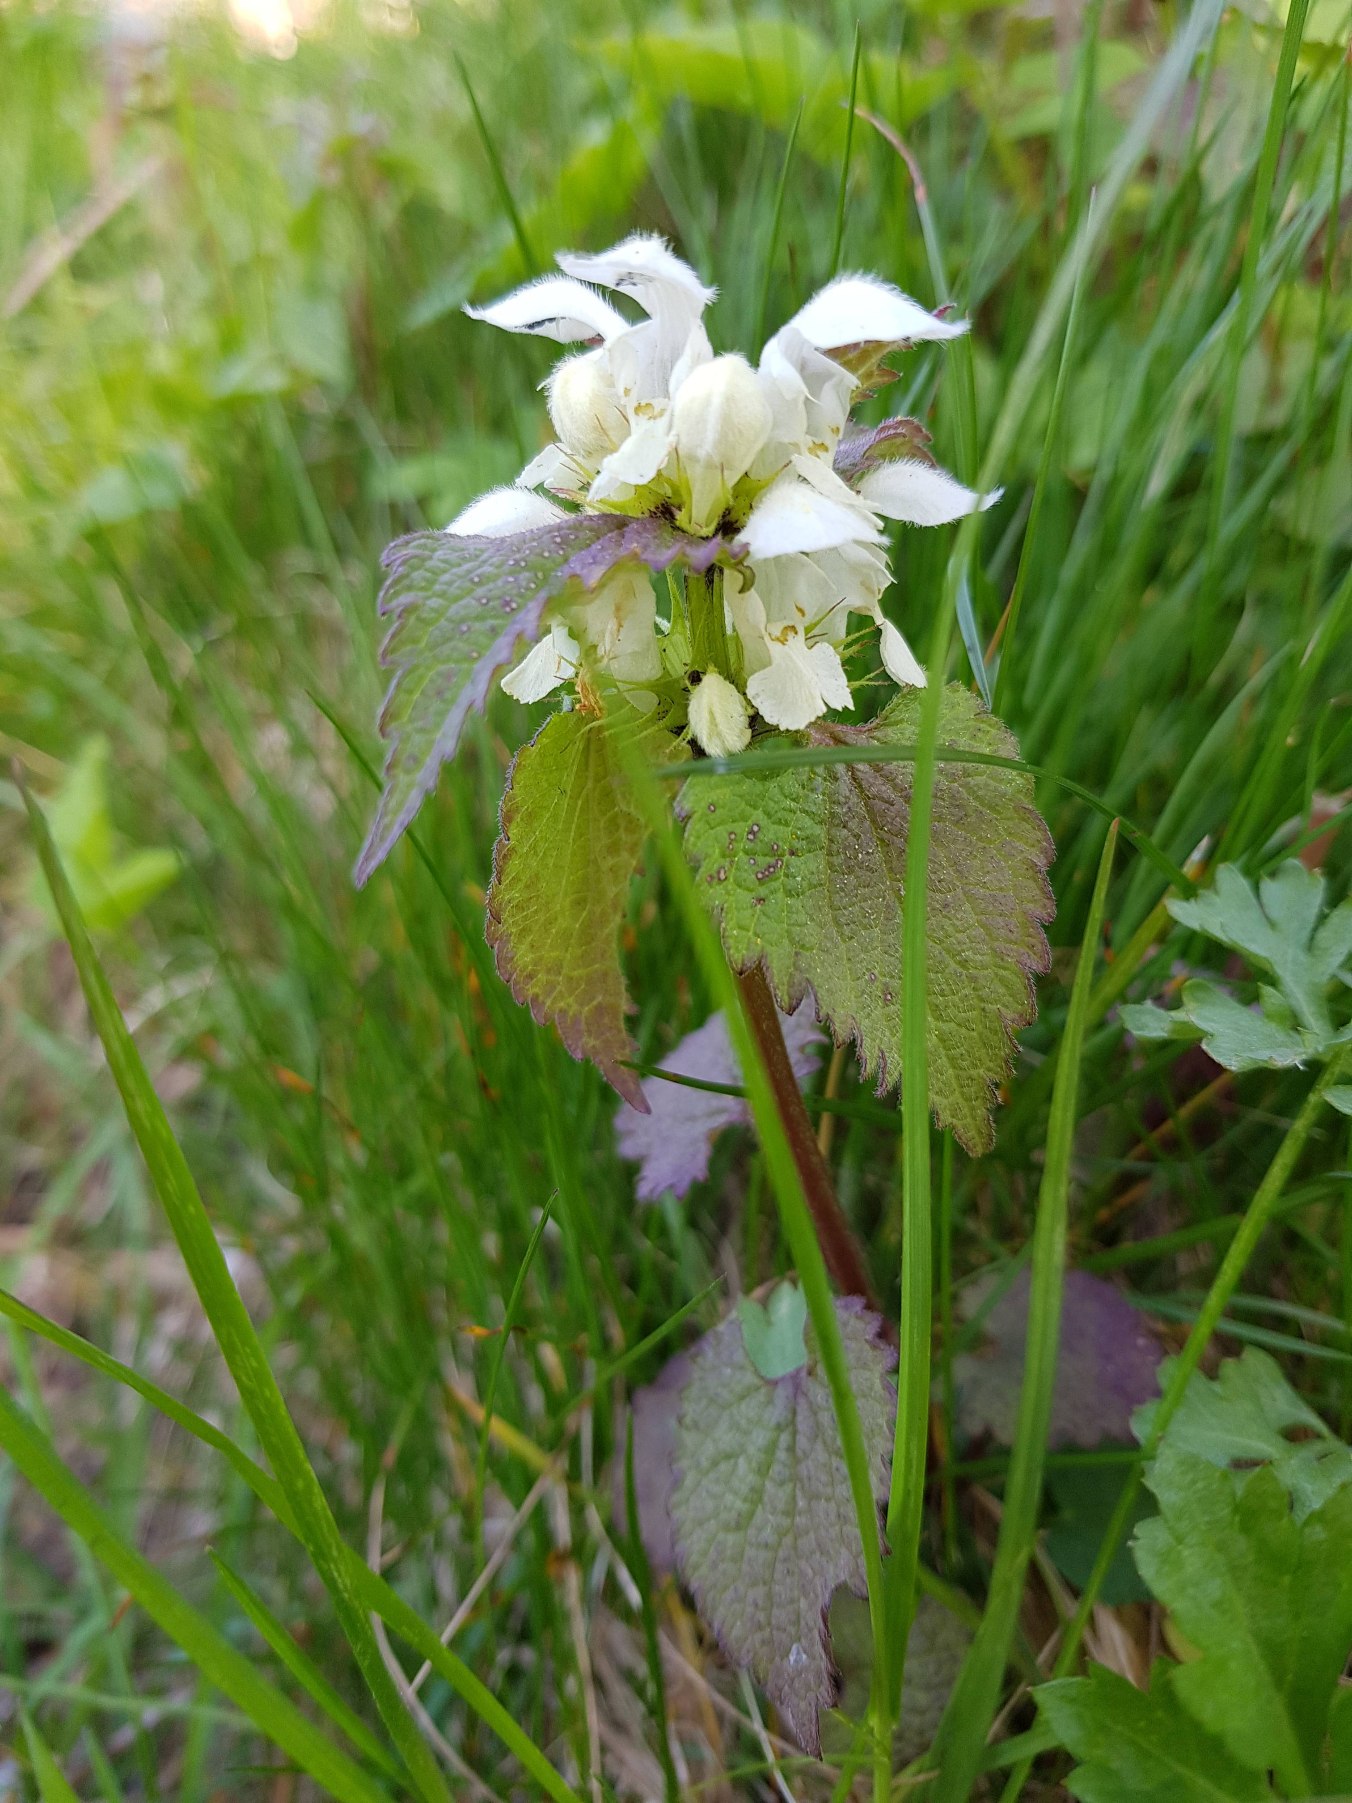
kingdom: Plantae
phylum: Tracheophyta
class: Magnoliopsida
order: Lamiales
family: Lamiaceae
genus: Lamium
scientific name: Lamium album
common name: Døvnælde
